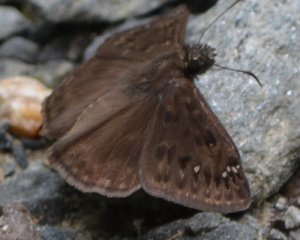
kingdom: Animalia
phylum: Arthropoda
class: Insecta
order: Lepidoptera
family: Hesperiidae
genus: Gesta
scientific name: Gesta
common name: Horace's Duskywing
